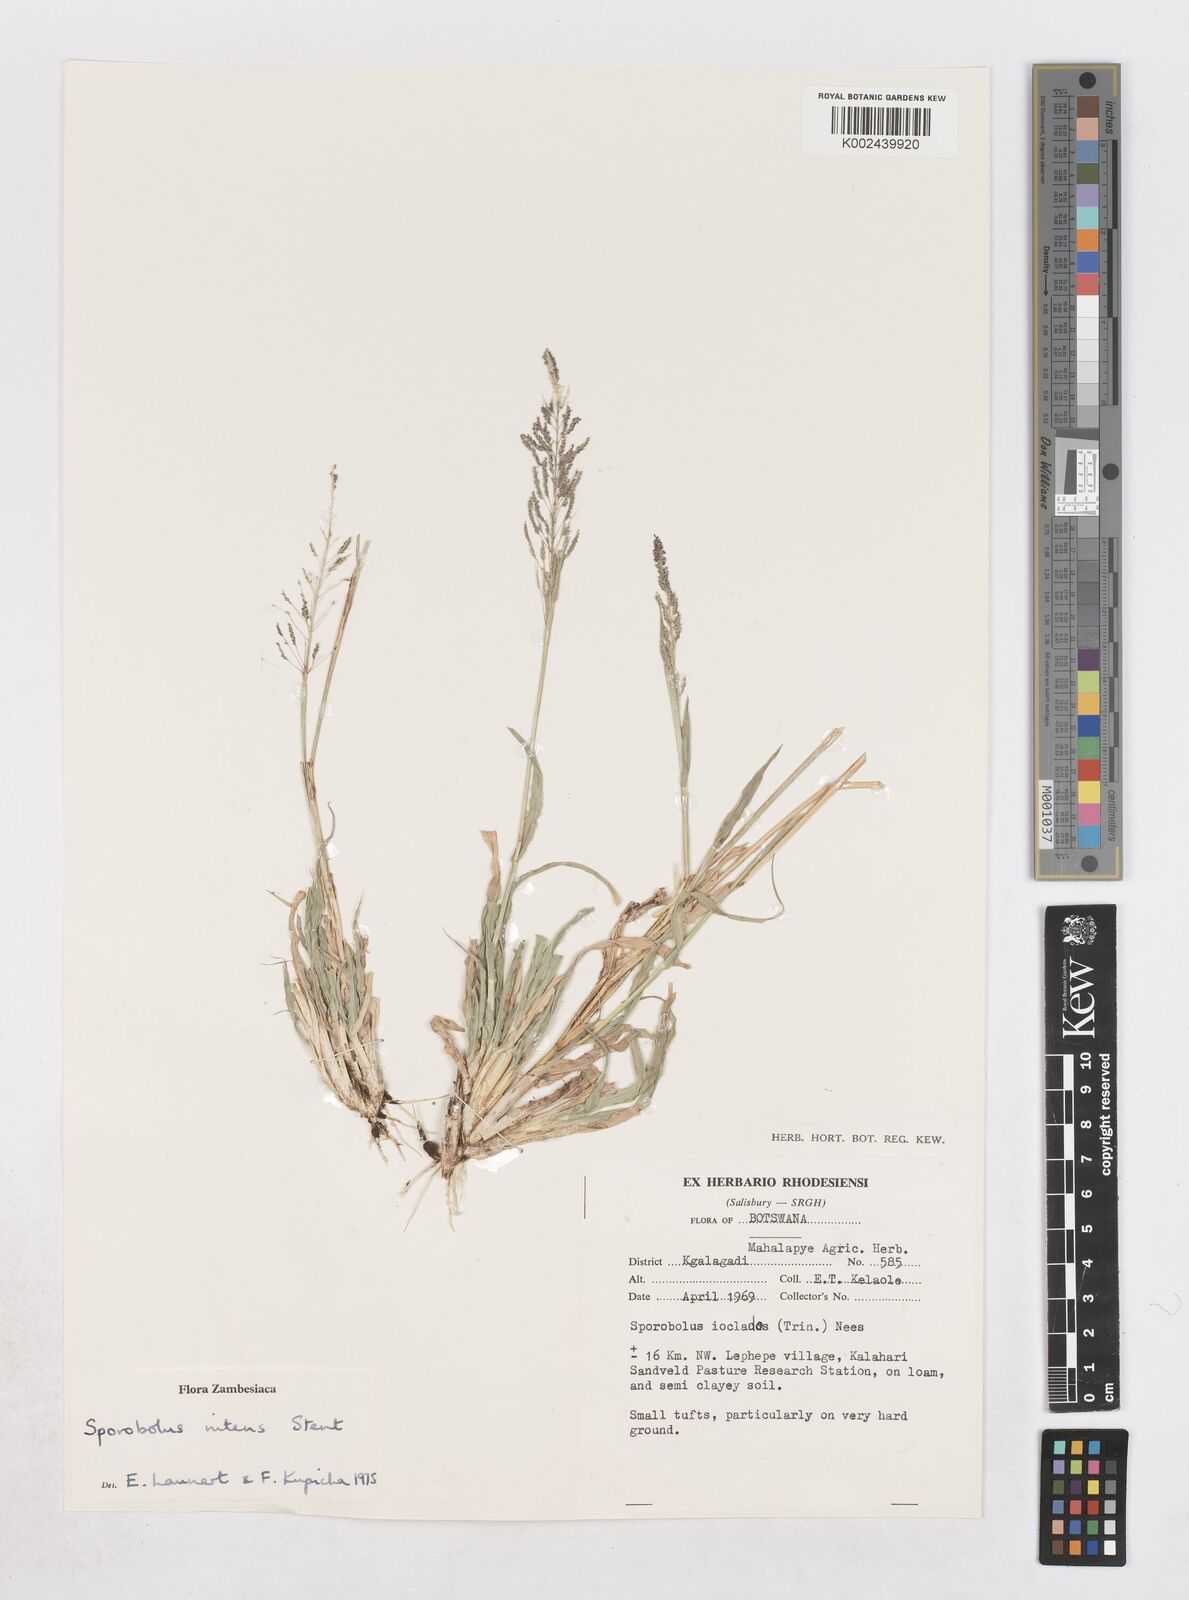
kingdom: Plantae
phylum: Tracheophyta
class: Liliopsida
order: Poales
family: Poaceae
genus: Sporobolus
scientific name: Sporobolus nitens
